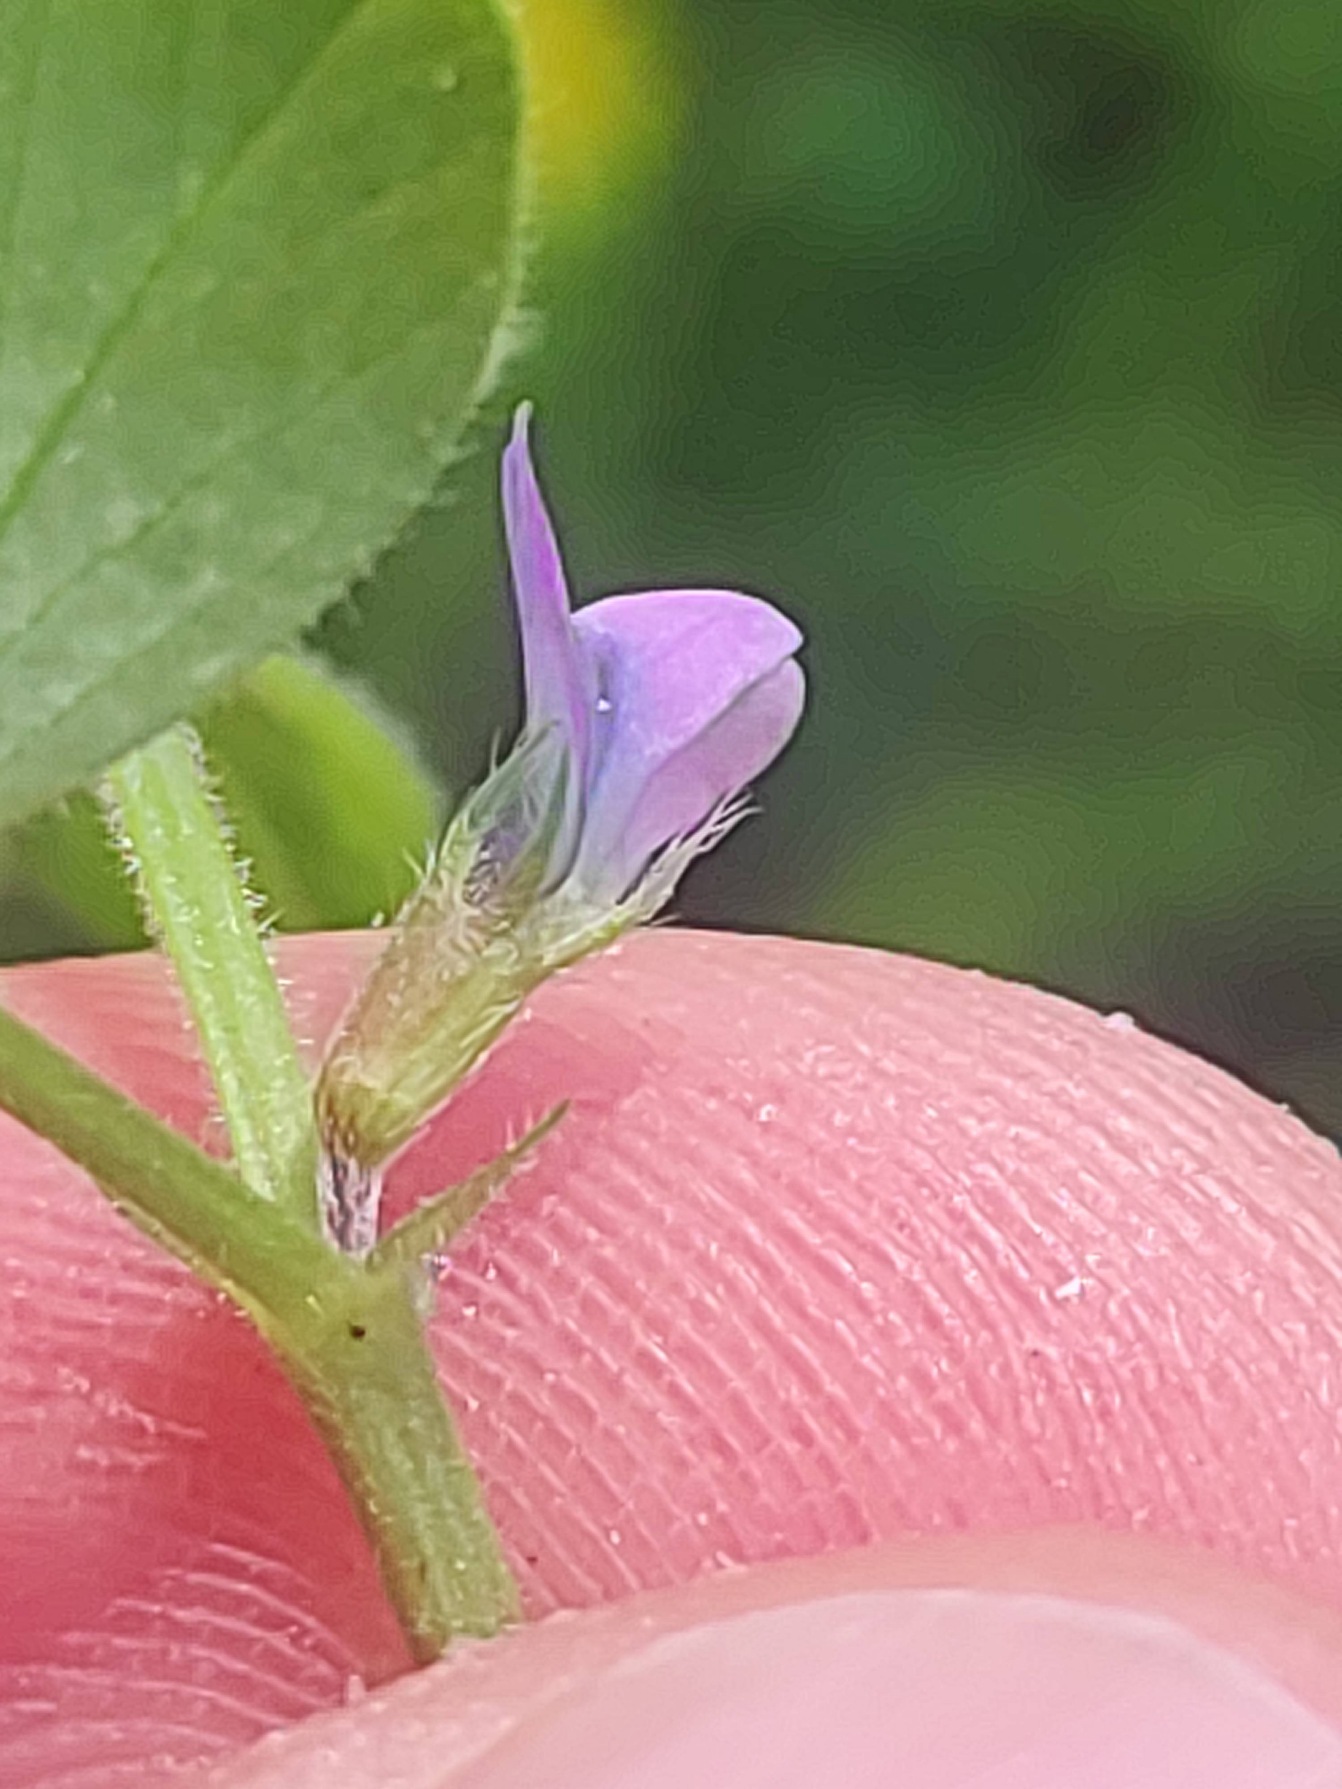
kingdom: Plantae
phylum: Tracheophyta
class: Magnoliopsida
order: Fabales
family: Fabaceae
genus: Vicia
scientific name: Vicia lathyroides
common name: Vår-vikke
